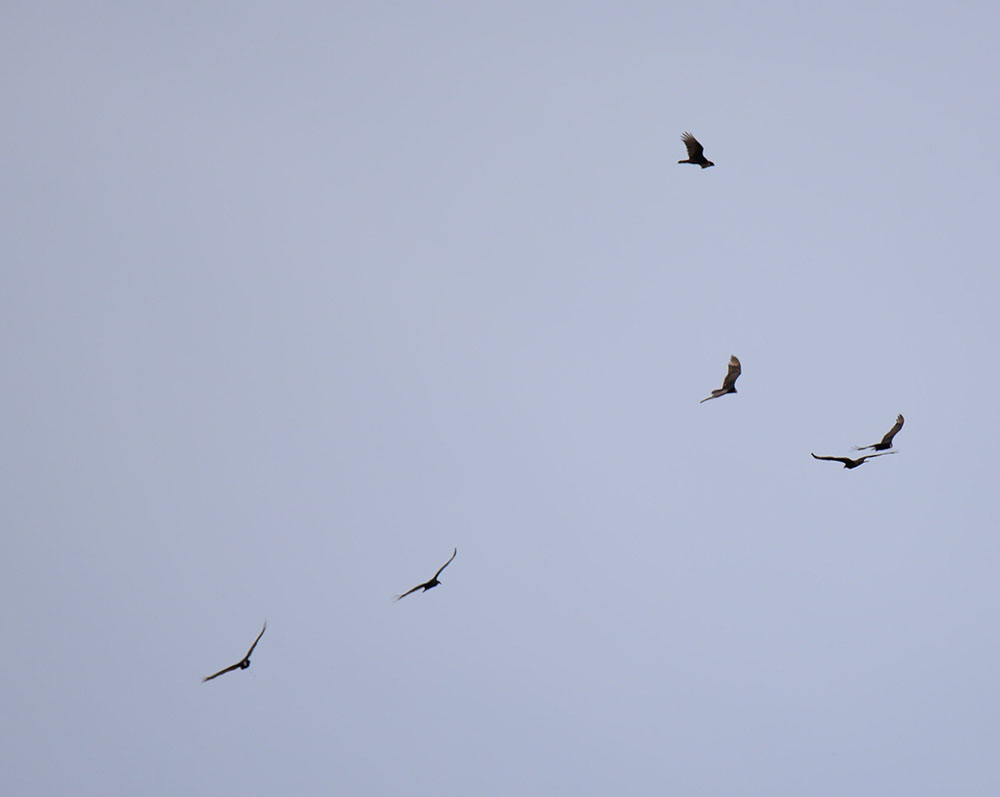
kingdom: Animalia
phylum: Chordata
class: Aves
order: Accipitriformes
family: Cathartidae
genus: Cathartes
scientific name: Cathartes aura
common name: Turkey vulture
